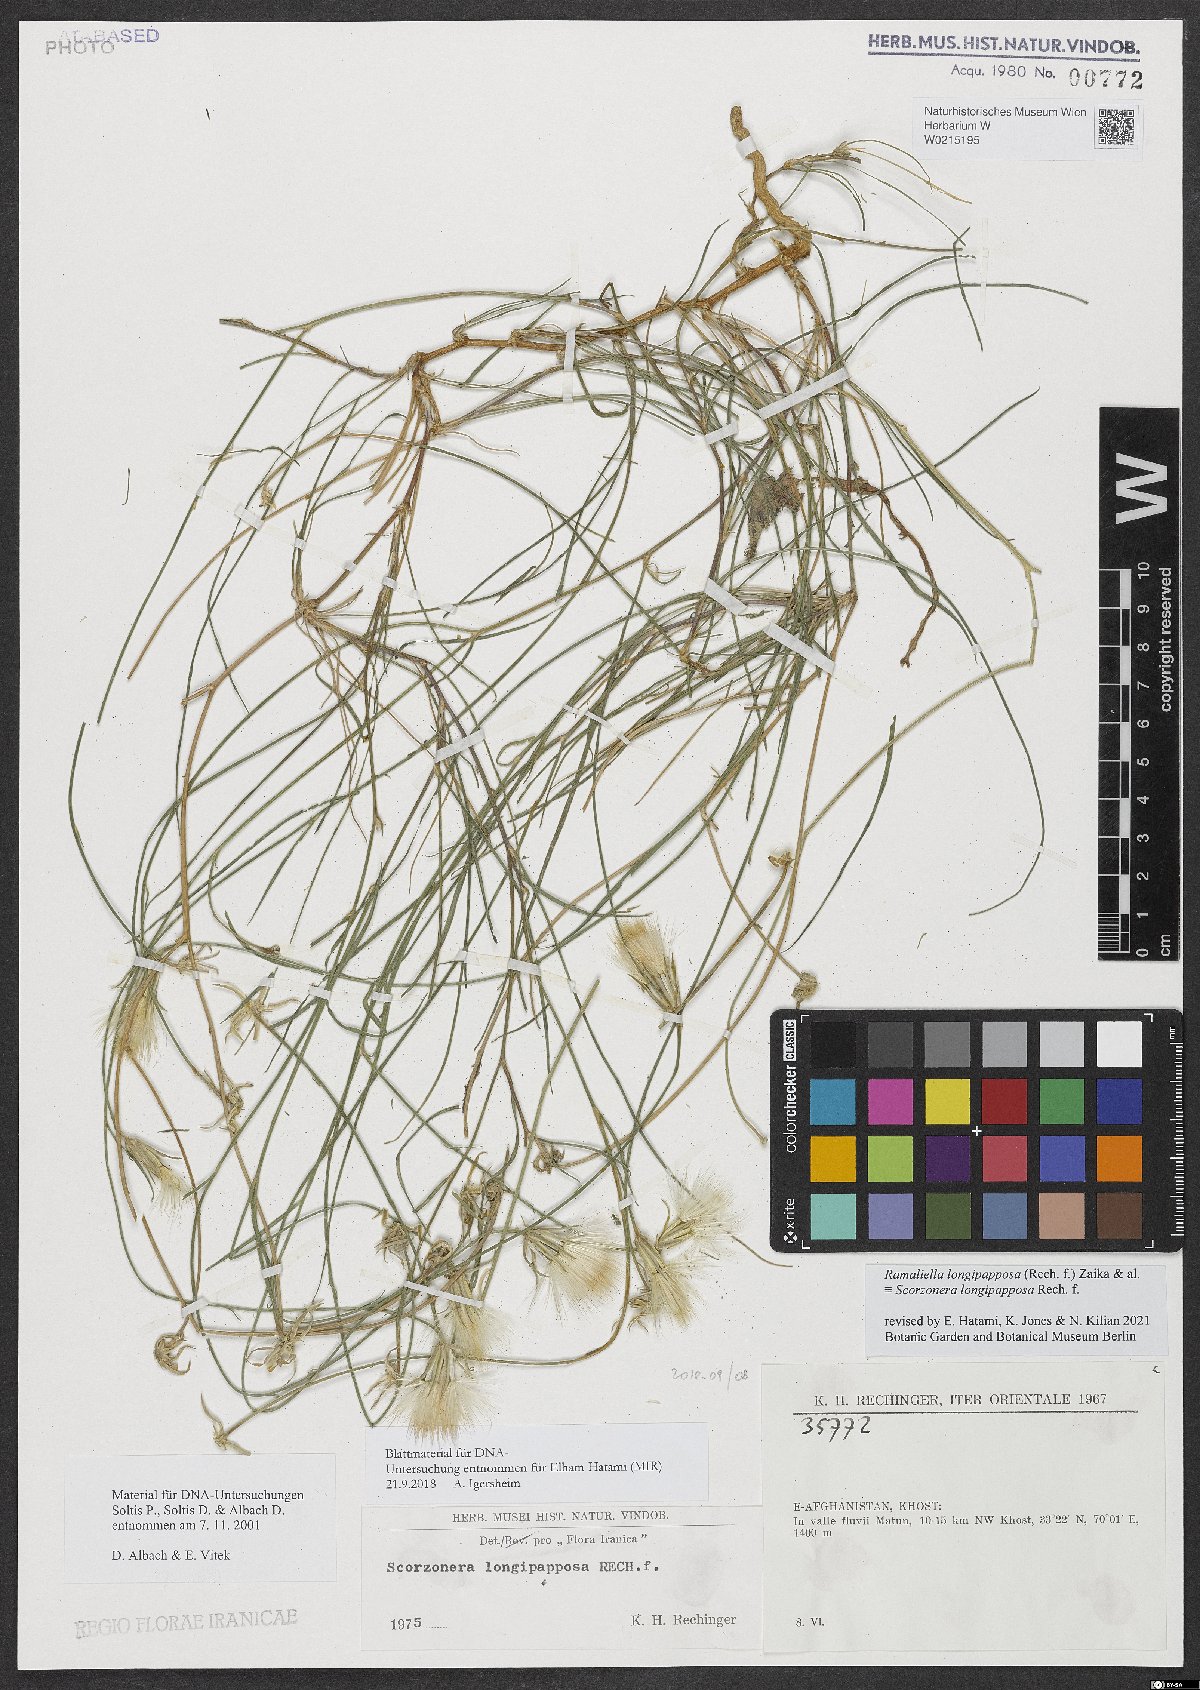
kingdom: Plantae
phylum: Tracheophyta
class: Magnoliopsida
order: Asterales
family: Asteraceae
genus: Ramaliella
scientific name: Ramaliella longipapposa
